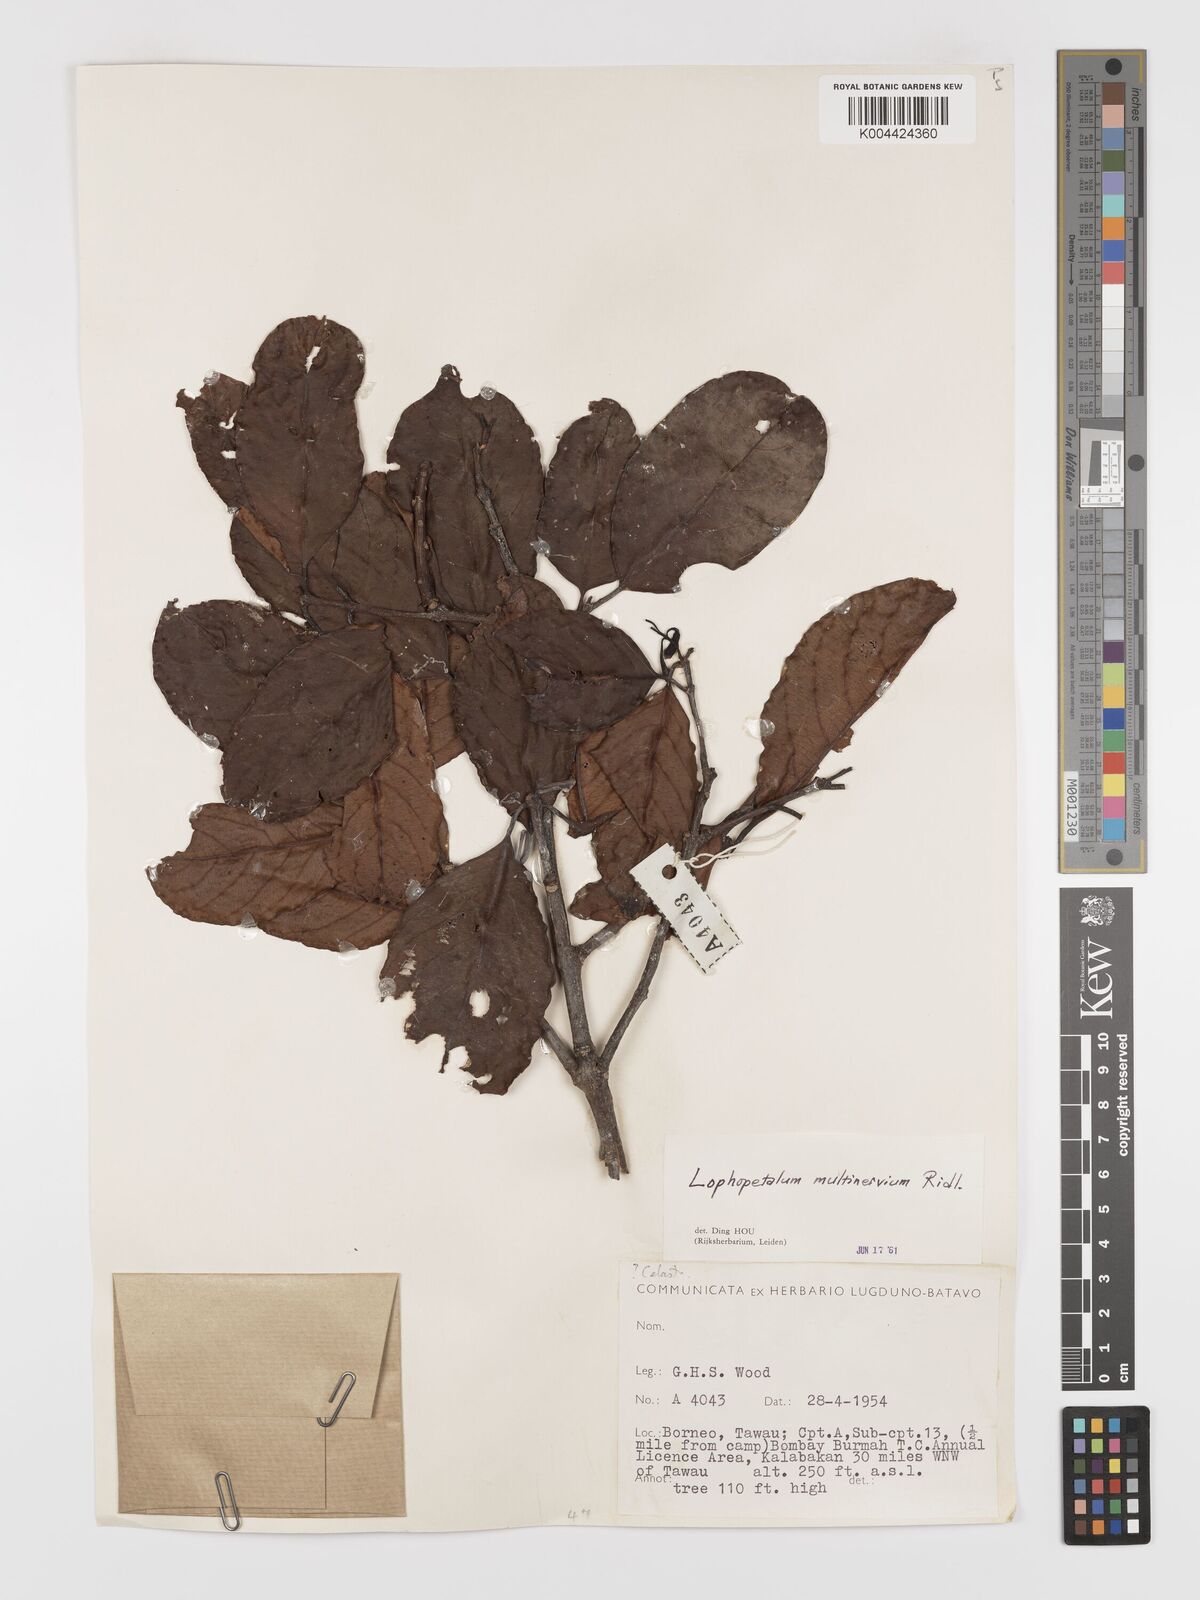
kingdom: Plantae
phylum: Tracheophyta
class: Magnoliopsida
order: Celastrales
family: Celastraceae
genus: Lophopetalum
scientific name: Lophopetalum multinervium
